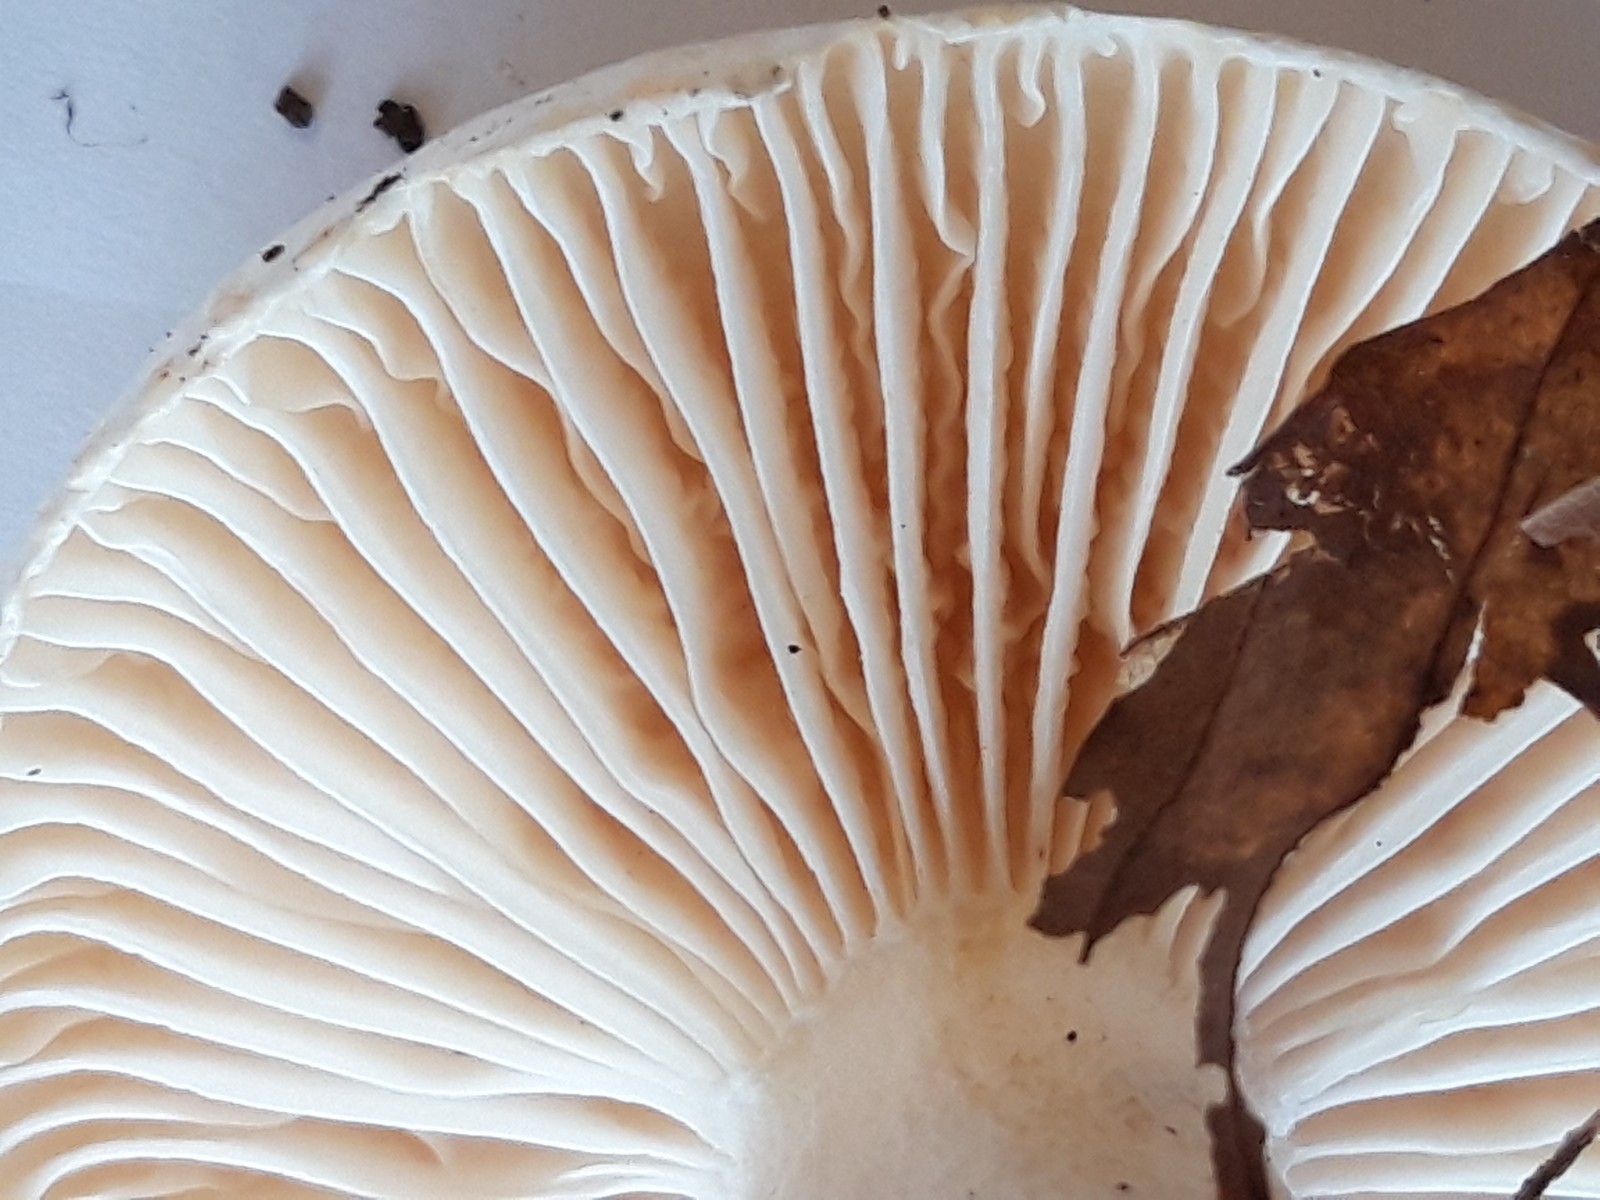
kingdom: Fungi
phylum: Basidiomycota
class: Agaricomycetes
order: Agaricales
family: Hygrophoraceae
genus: Hygrophorus
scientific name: Hygrophorus penarius
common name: spiselig sneglehat
